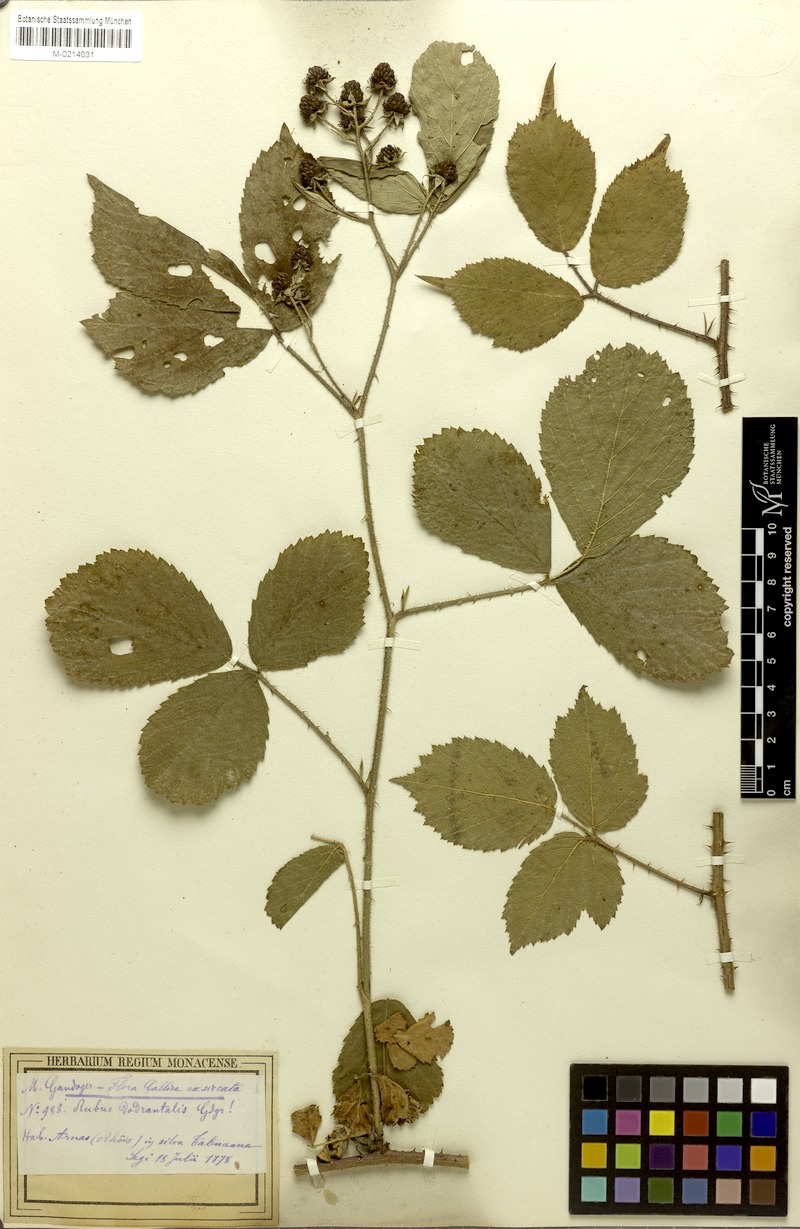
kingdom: Plantae
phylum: Tracheophyta
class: Magnoliopsida
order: Rosales
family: Rosaceae
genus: Rubus
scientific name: Rubus
